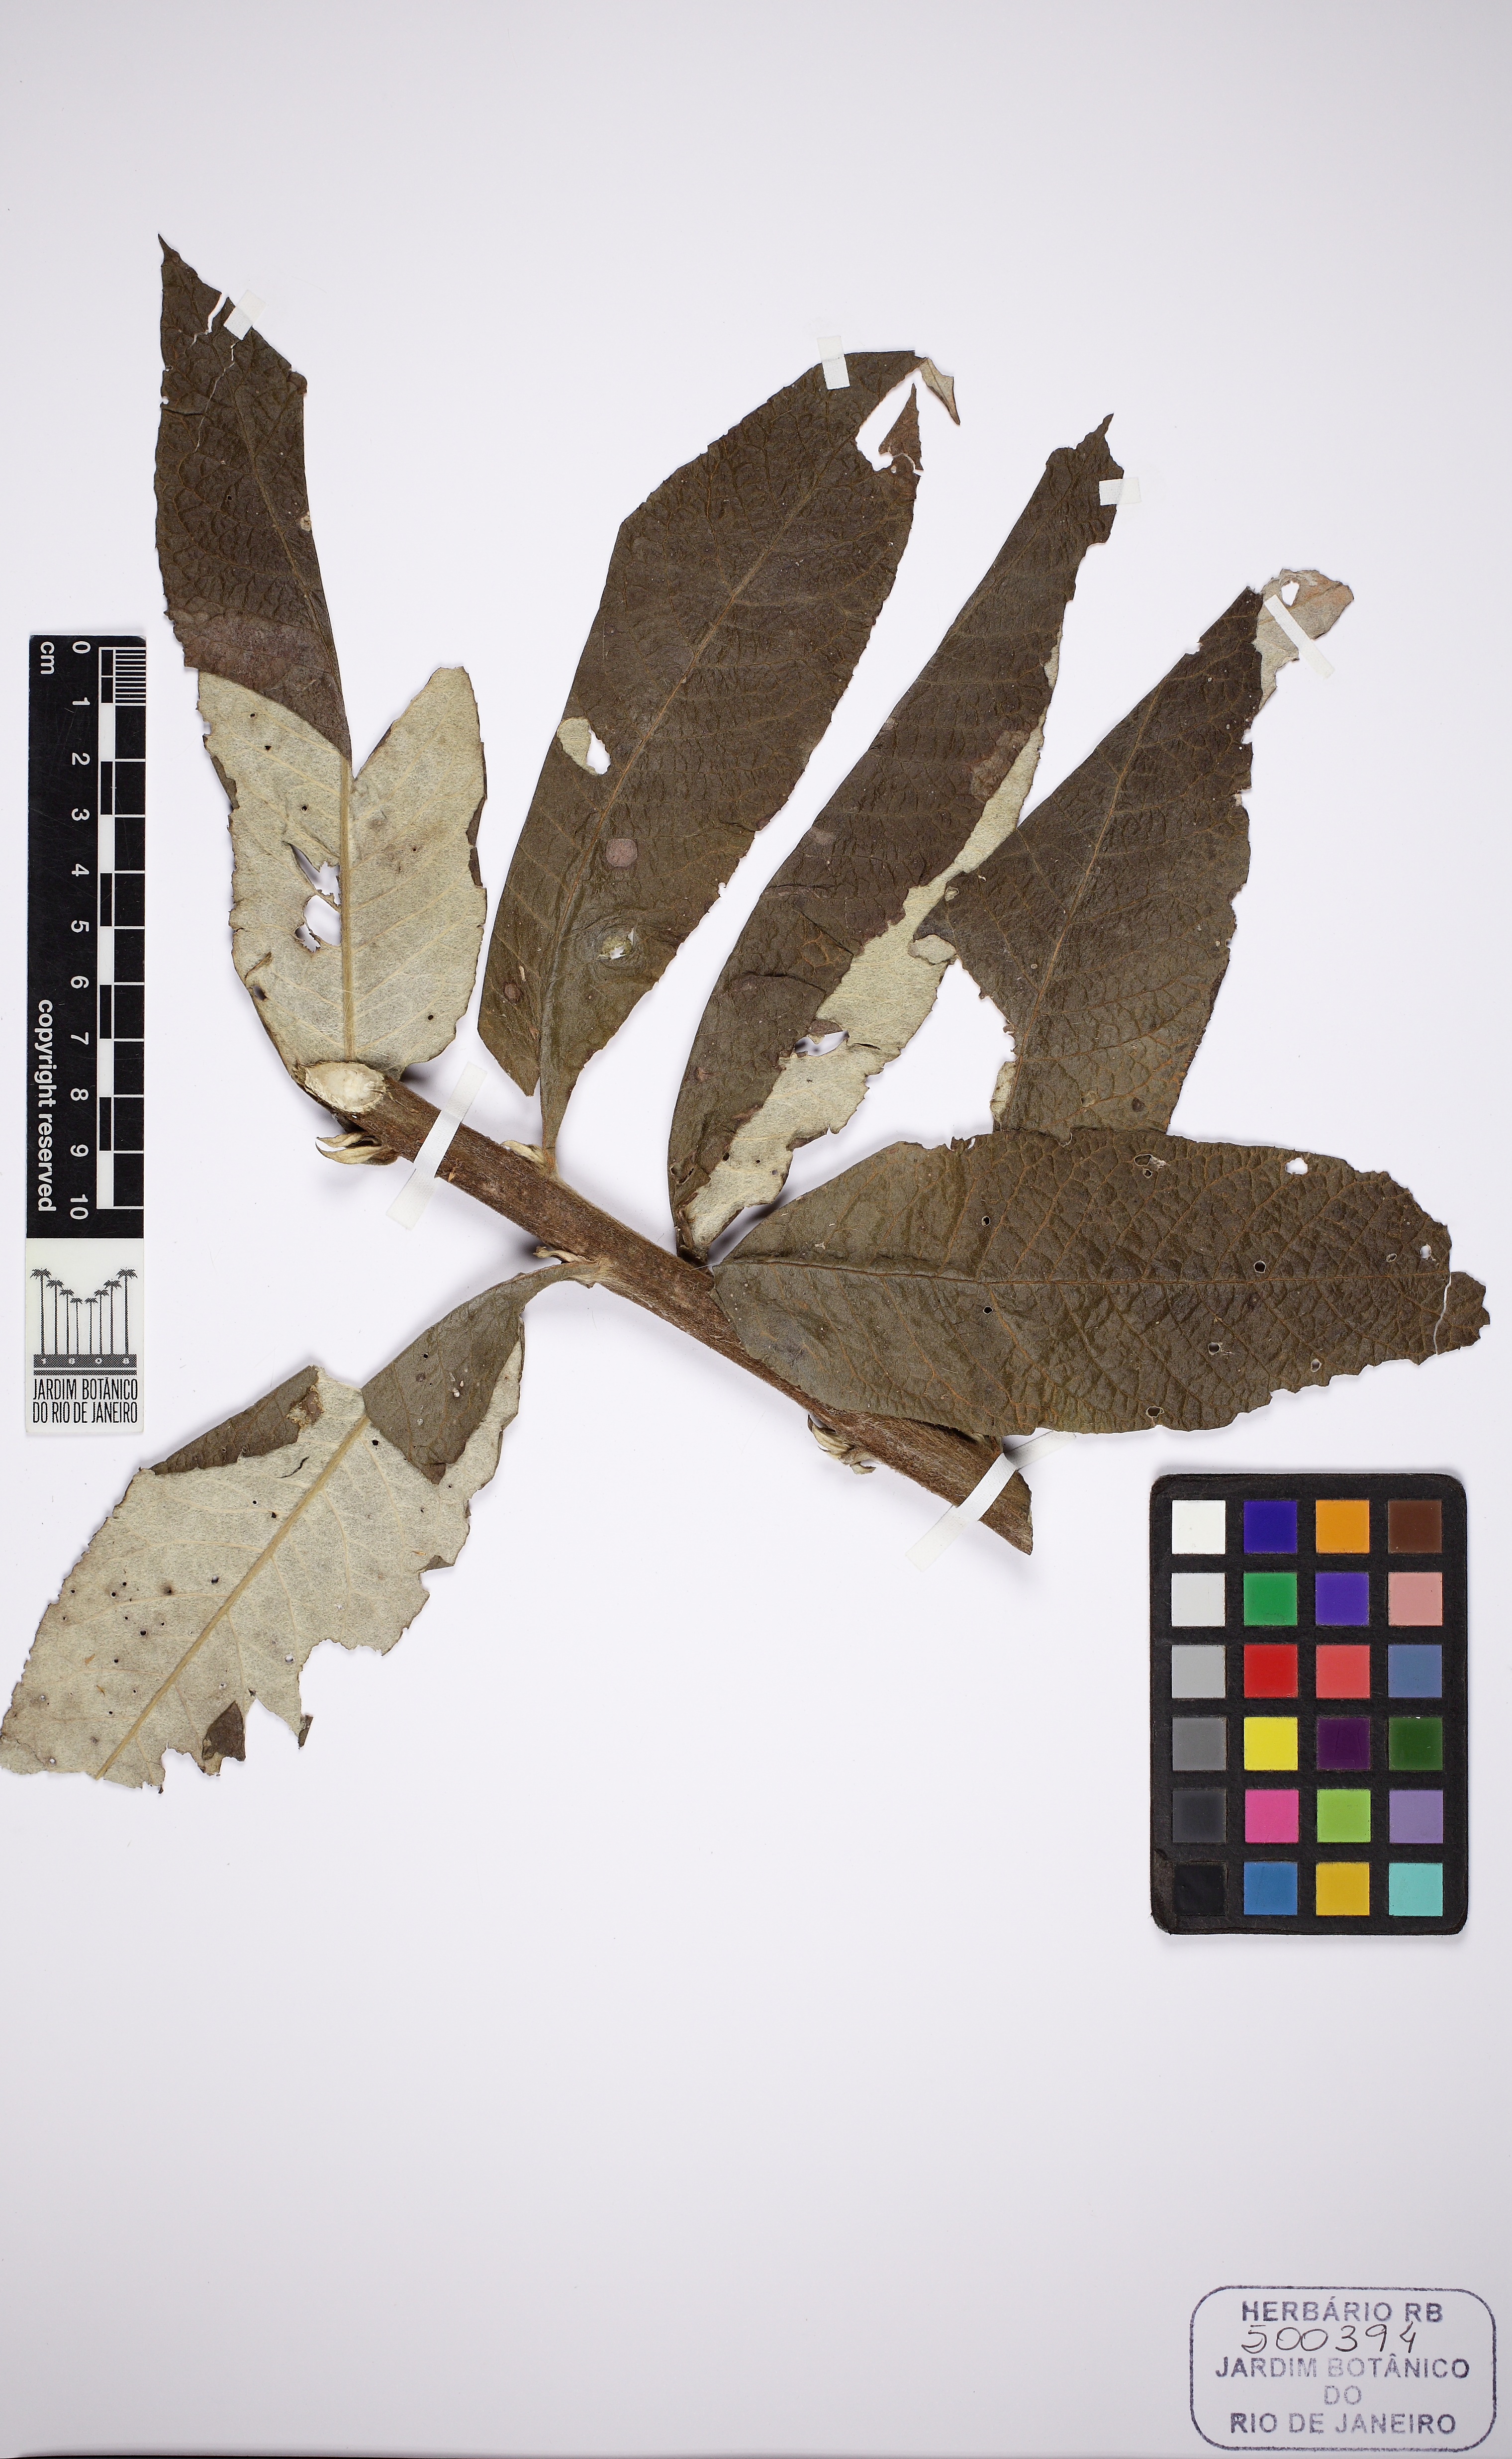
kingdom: Plantae
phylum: Tracheophyta
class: Magnoliopsida
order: Asterales
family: Asteraceae
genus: Trixis
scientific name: Trixis divaricata
